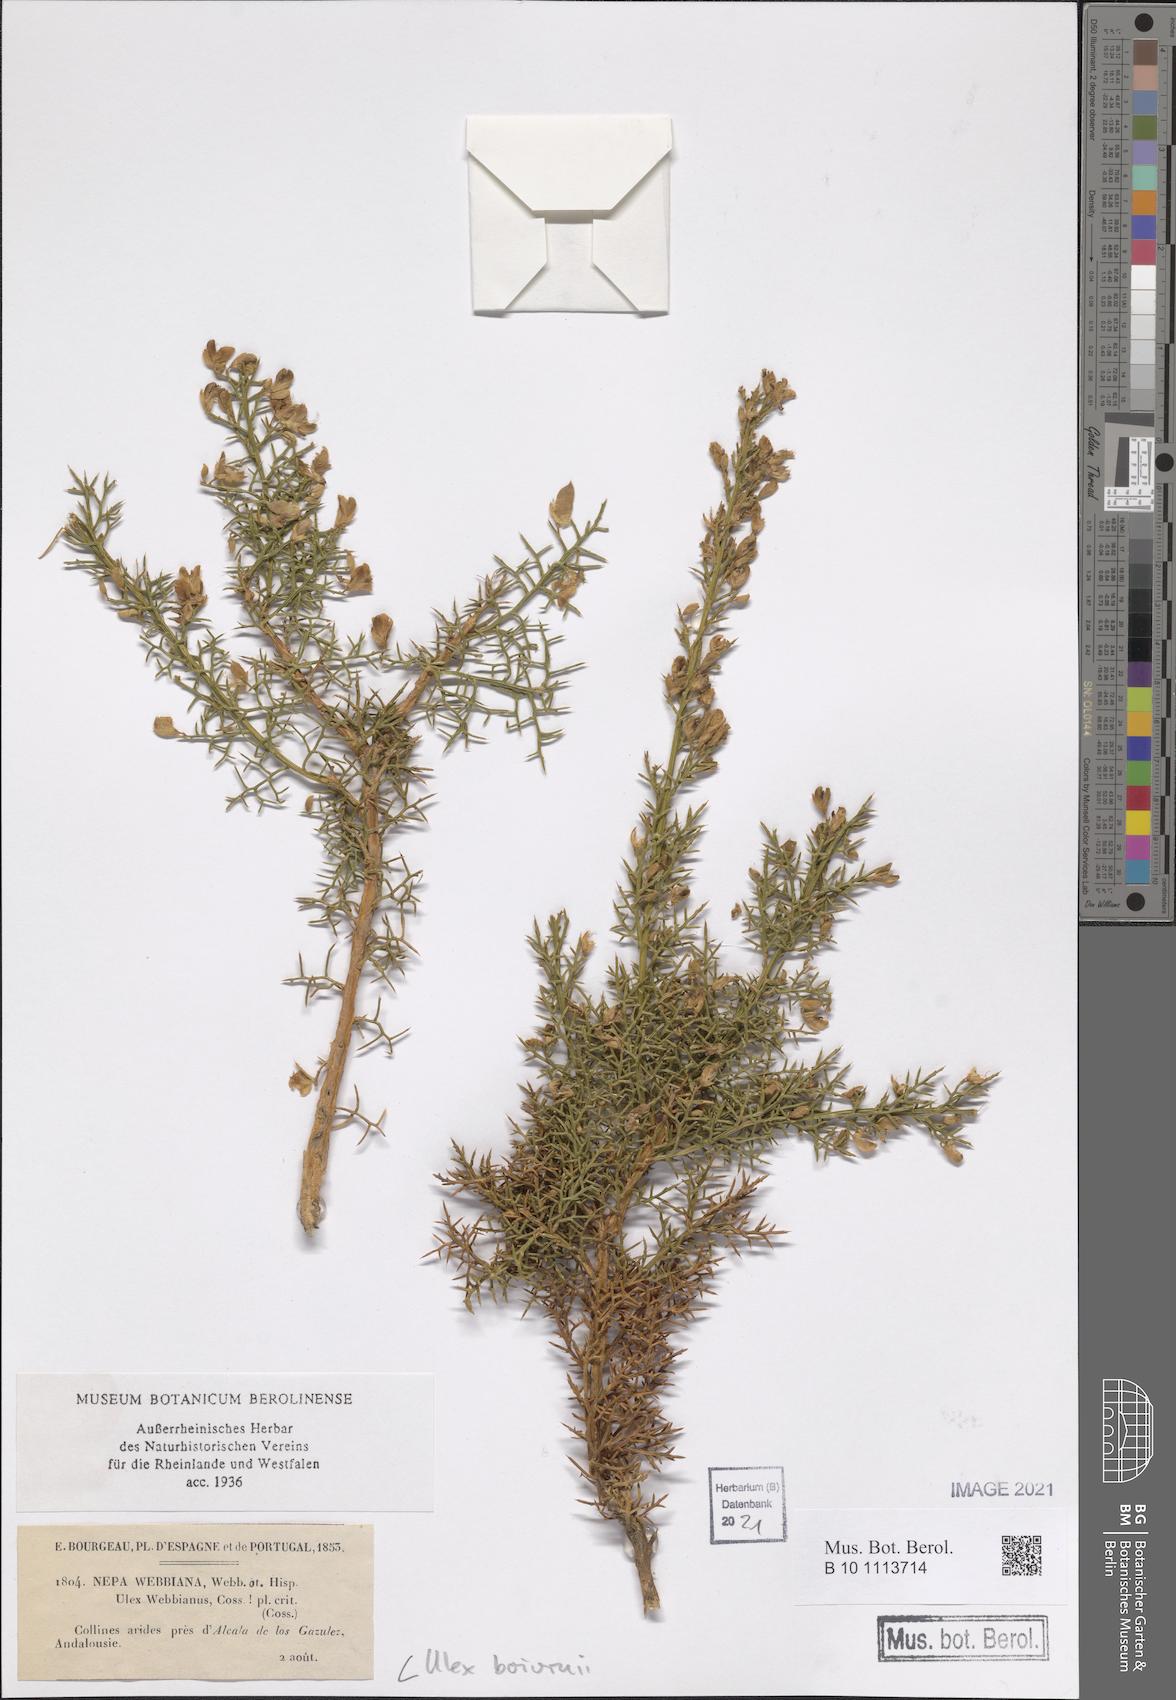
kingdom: Plantae
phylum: Tracheophyta
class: Magnoliopsida
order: Fabales
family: Fabaceae
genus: Stauracanthus
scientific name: Stauracanthus boivinii
